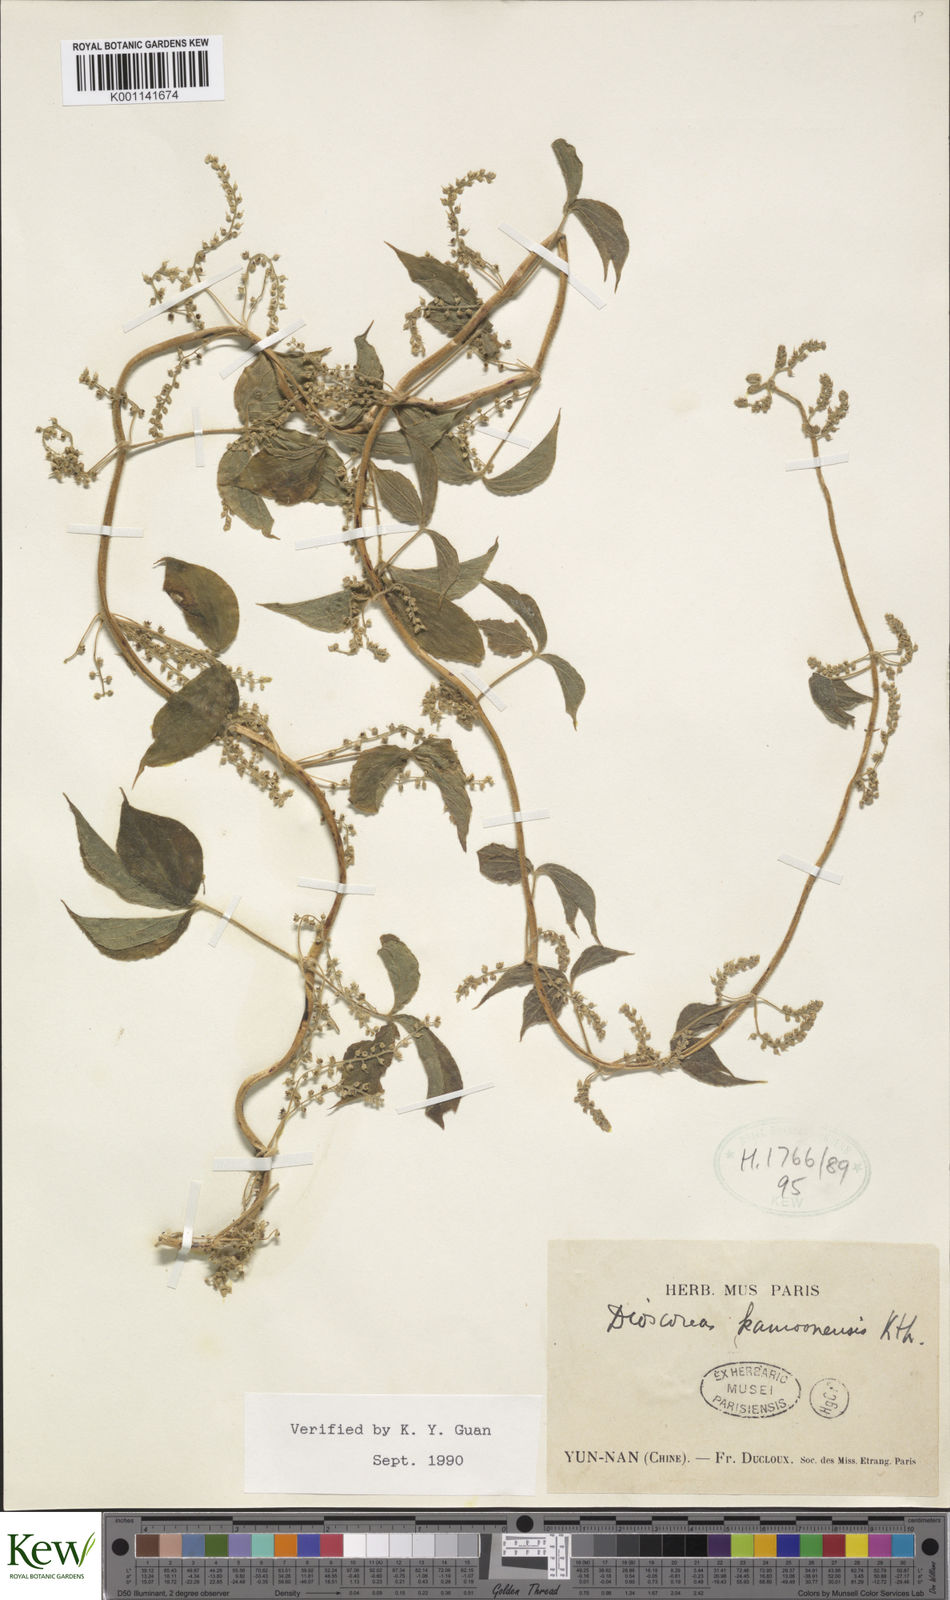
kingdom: Plantae
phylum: Tracheophyta
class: Liliopsida
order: Dioscoreales
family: Dioscoreaceae
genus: Dioscorea
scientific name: Dioscorea kamoonensis
